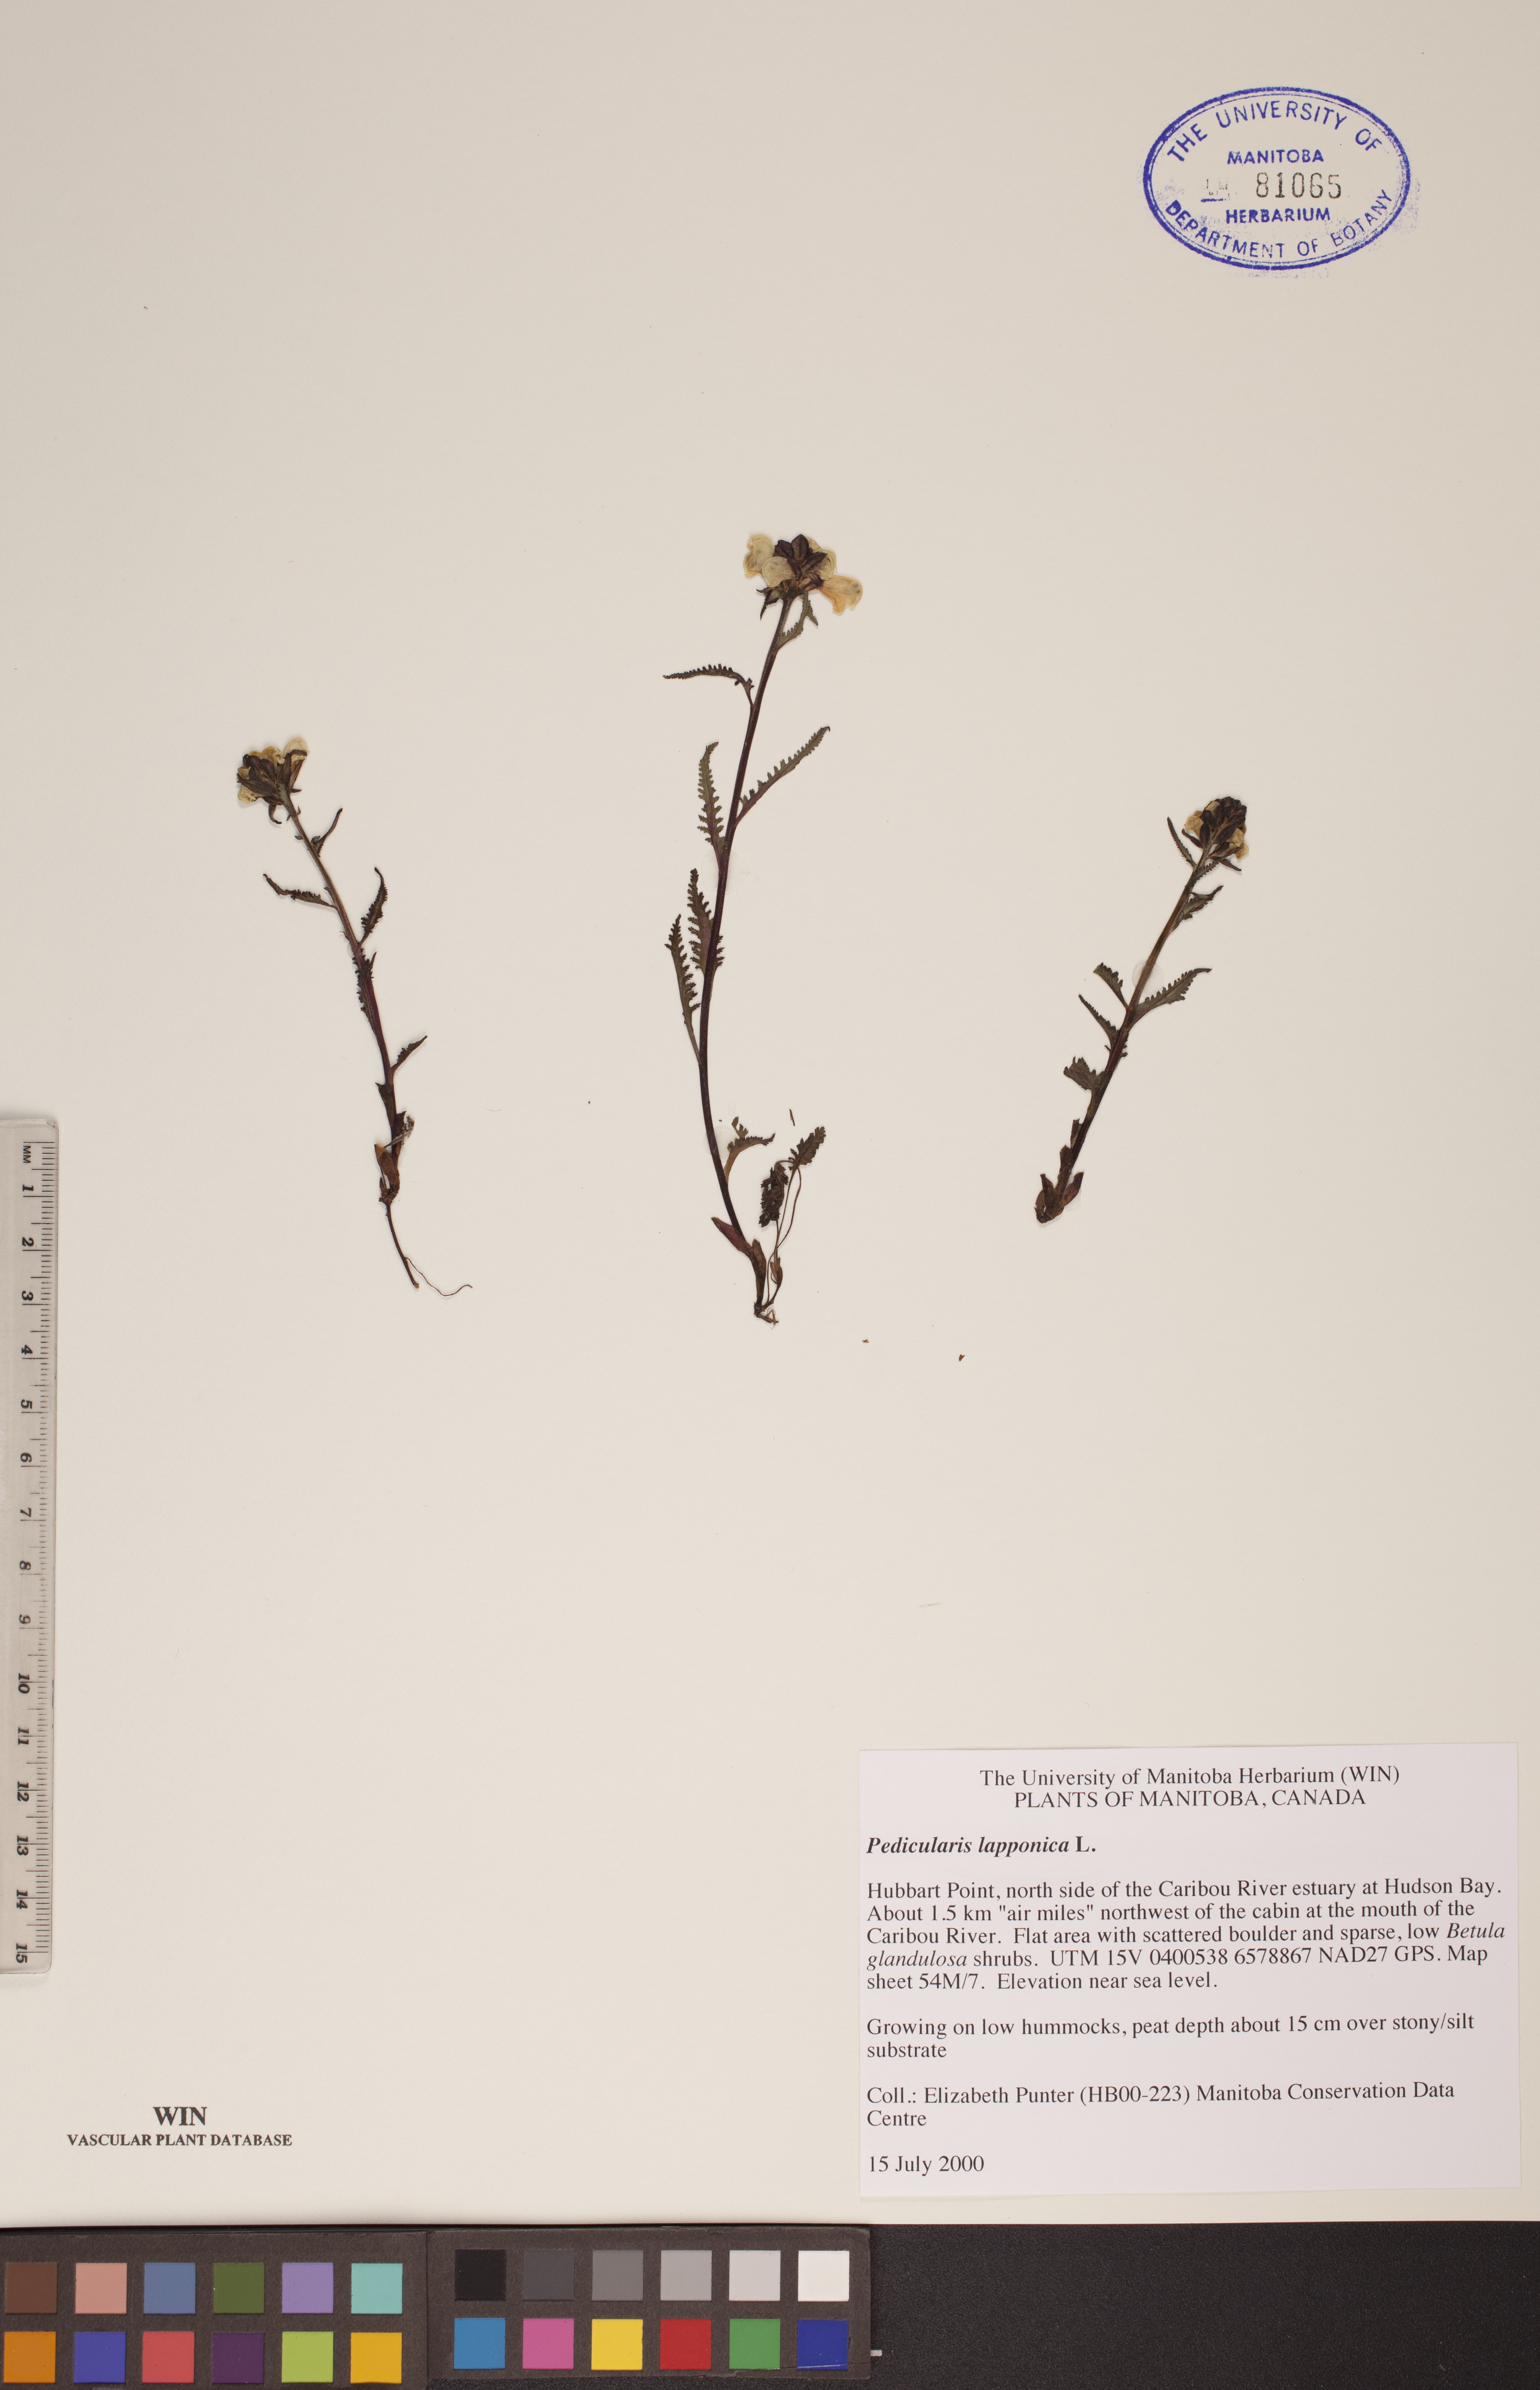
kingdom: Plantae
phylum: Tracheophyta
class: Magnoliopsida
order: Lamiales
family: Orobanchaceae
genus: Pedicularis
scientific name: Pedicularis lapponica
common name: Lapland lousewort
